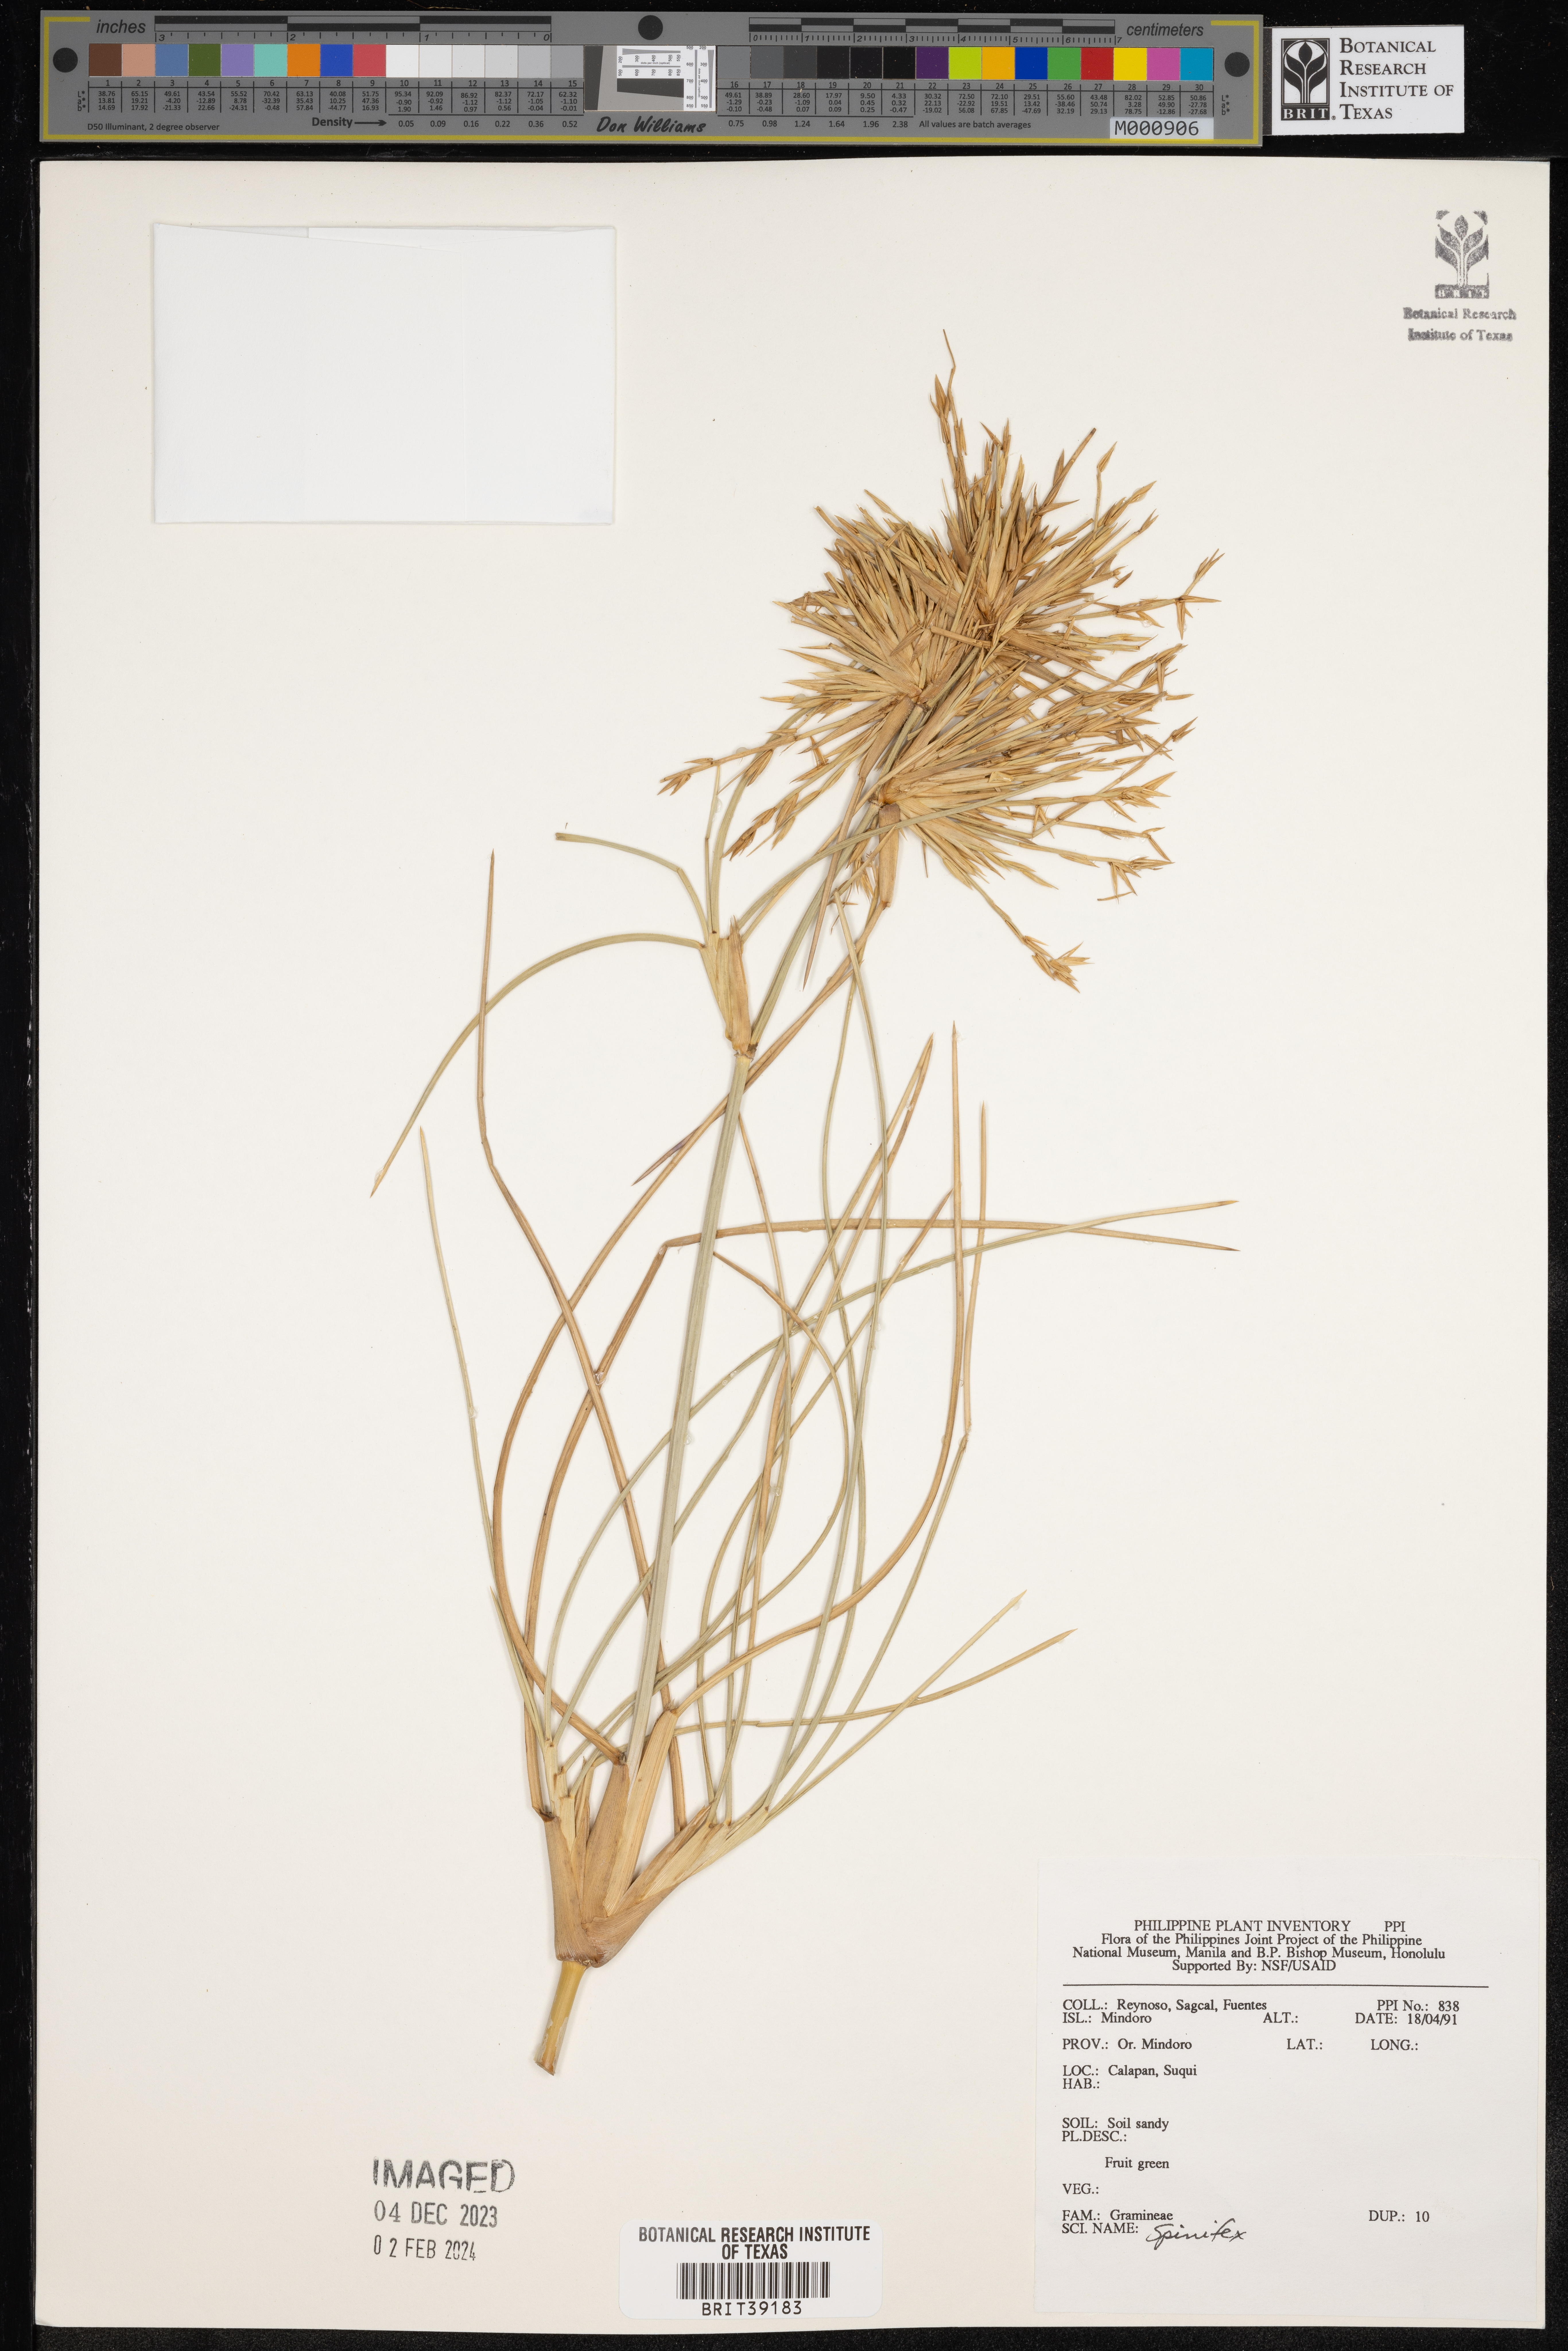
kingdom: Plantae
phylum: Tracheophyta
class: Liliopsida
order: Poales
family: Poaceae
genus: Spinifex
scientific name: Spinifex
